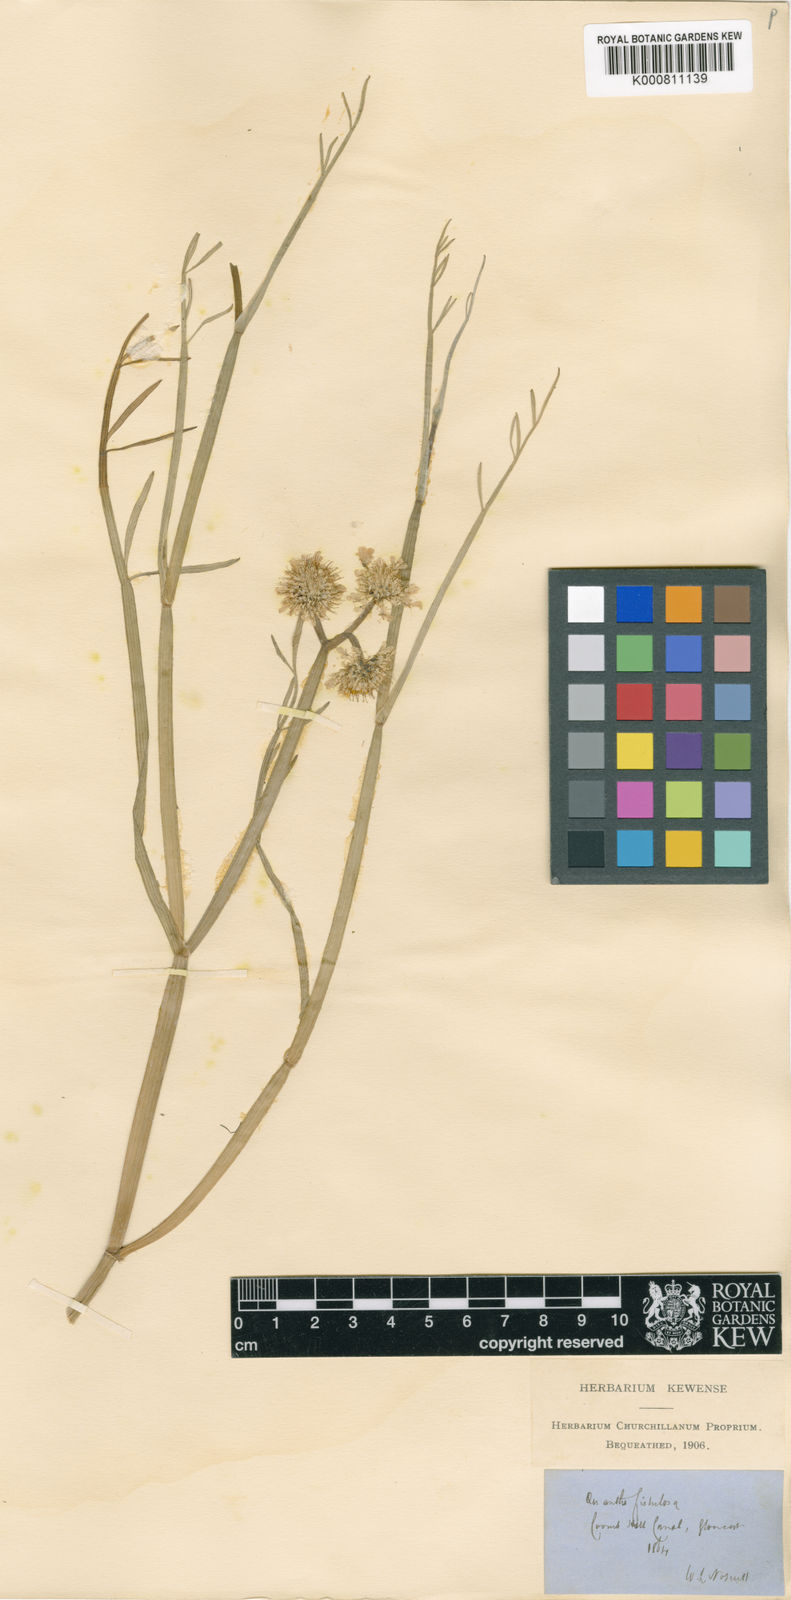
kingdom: Plantae
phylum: Tracheophyta
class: Magnoliopsida
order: Apiales
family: Apiaceae
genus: Oenanthe
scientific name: Oenanthe fistulosa
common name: Tubular water-dropwort
